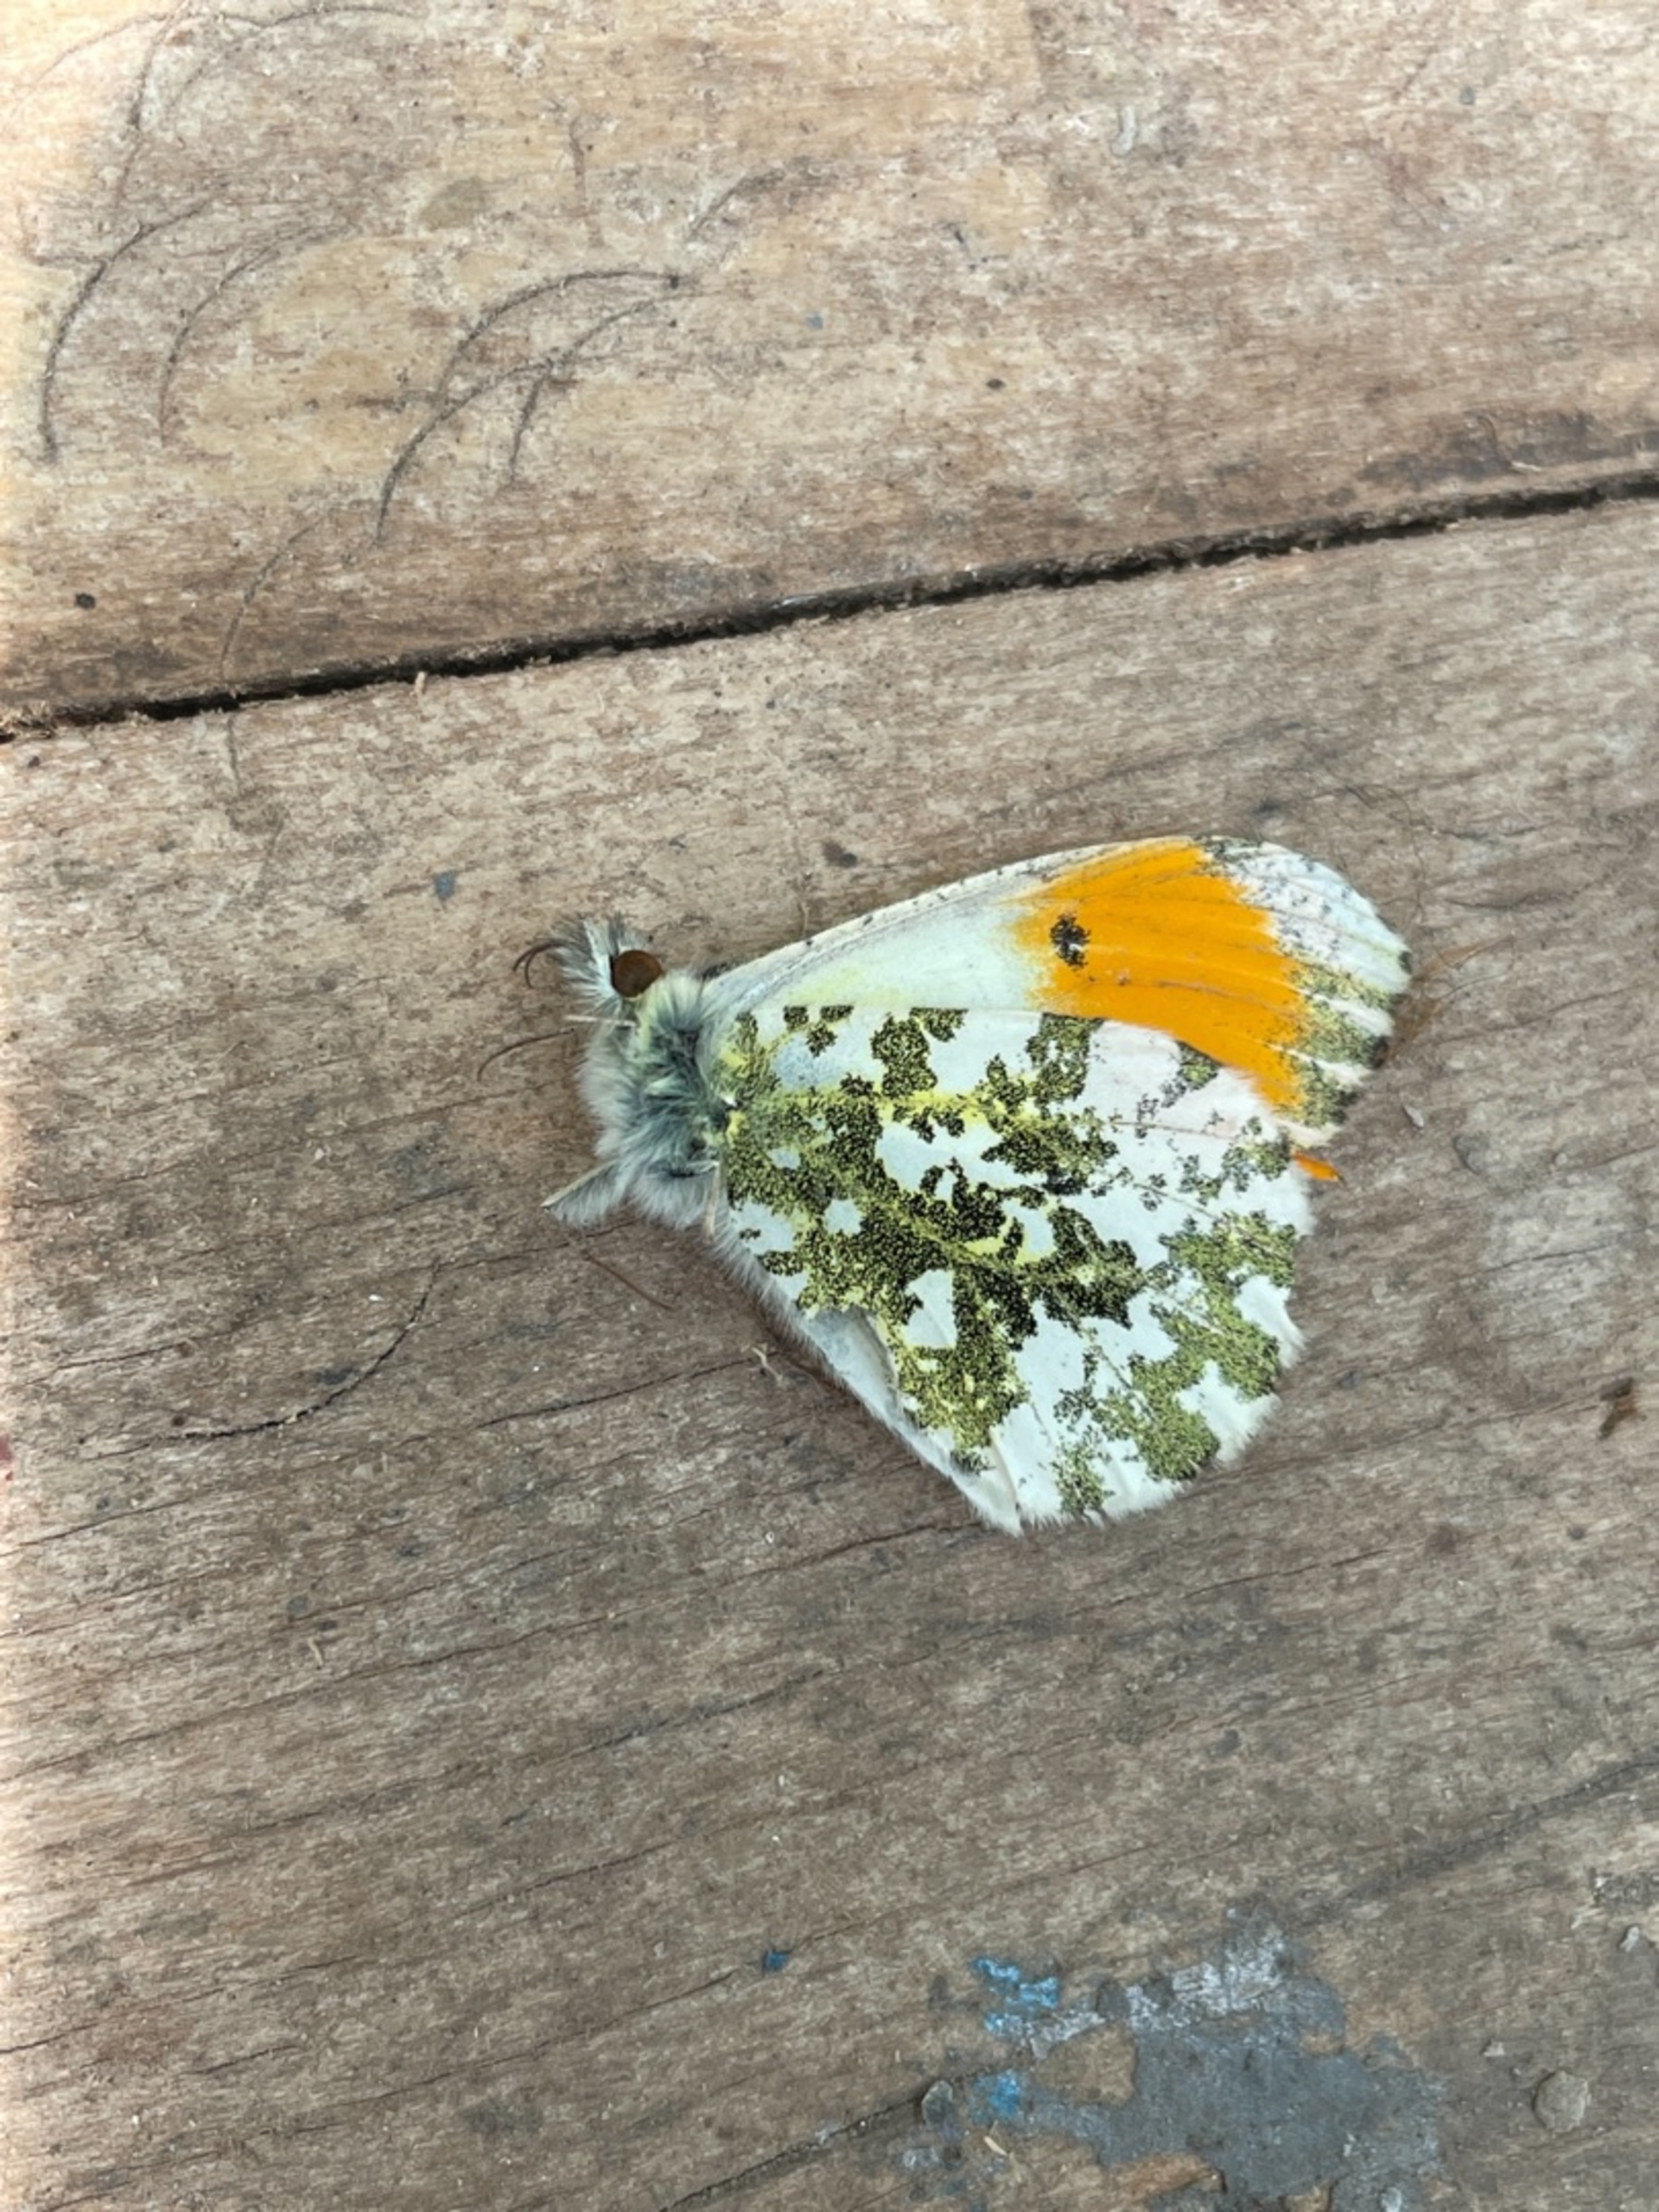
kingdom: Animalia
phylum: Arthropoda
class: Insecta
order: Lepidoptera
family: Pieridae
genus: Anthocharis
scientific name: Anthocharis cardamines
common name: Aurora
